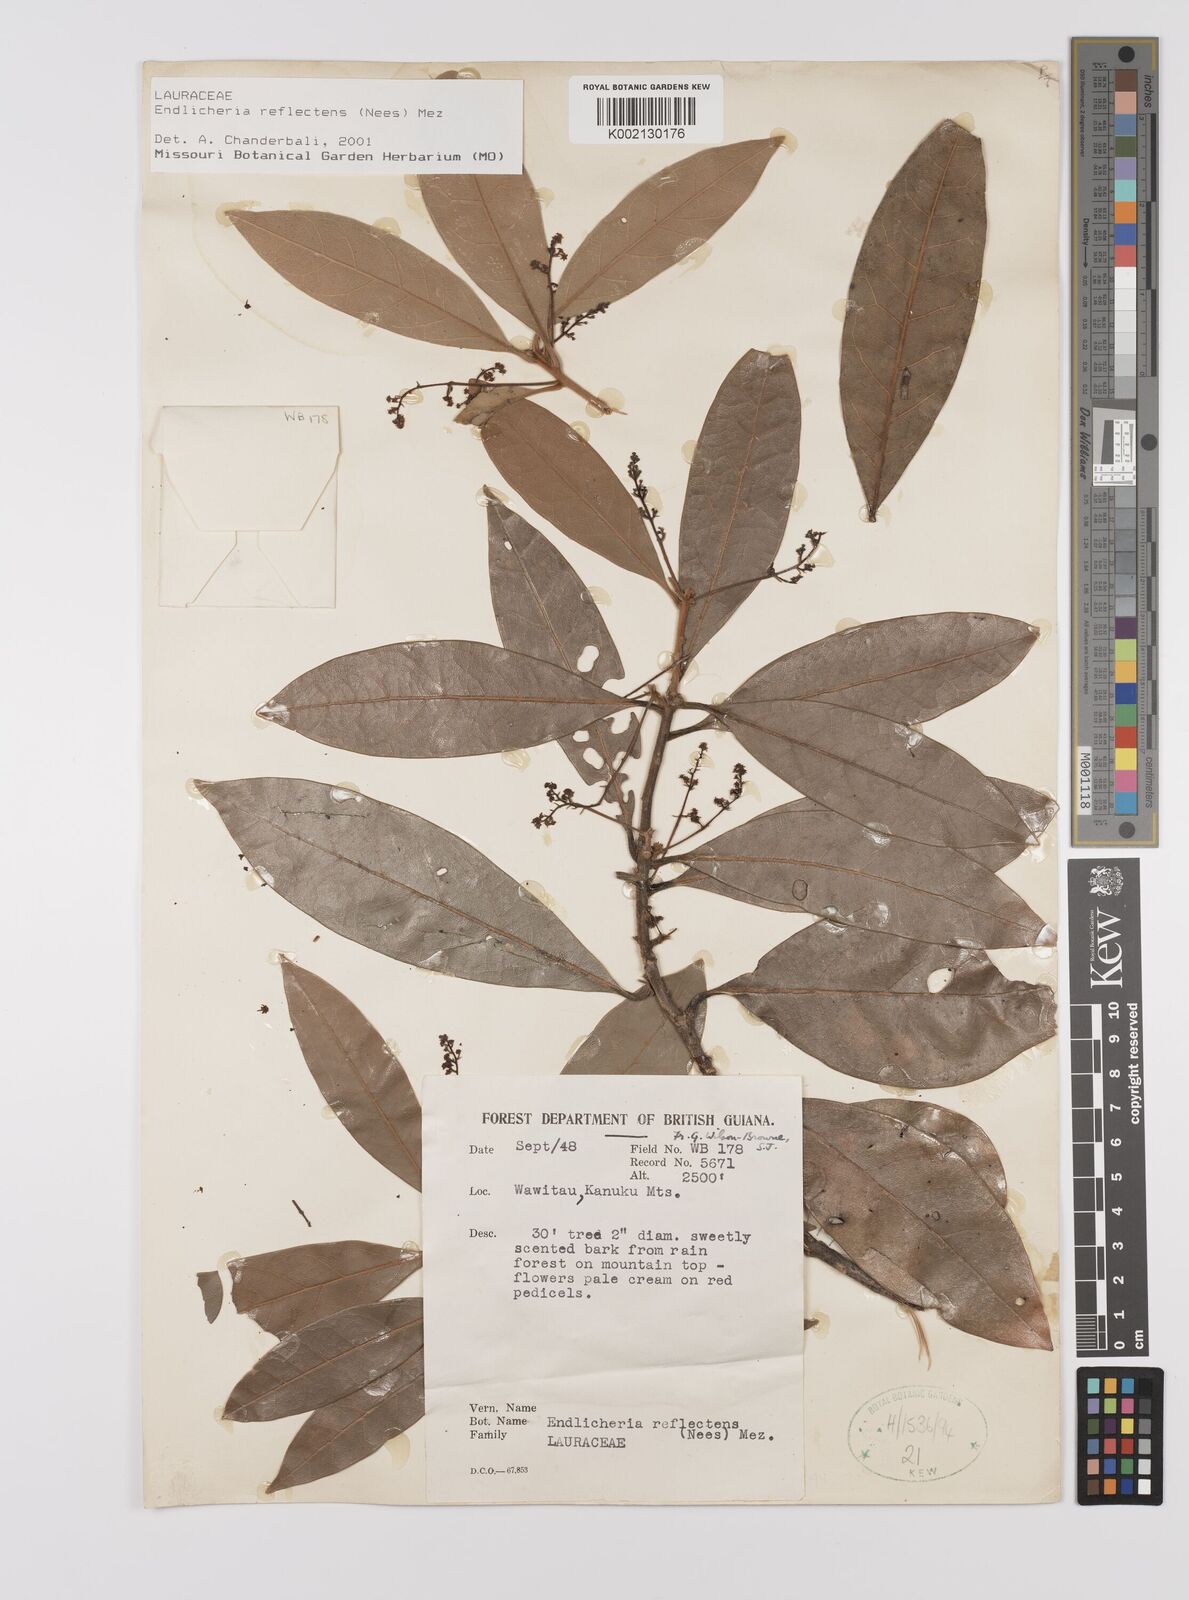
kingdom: Plantae
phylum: Tracheophyta
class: Magnoliopsida
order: Laurales
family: Lauraceae
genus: Endlicheria
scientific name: Endlicheria reflectens
